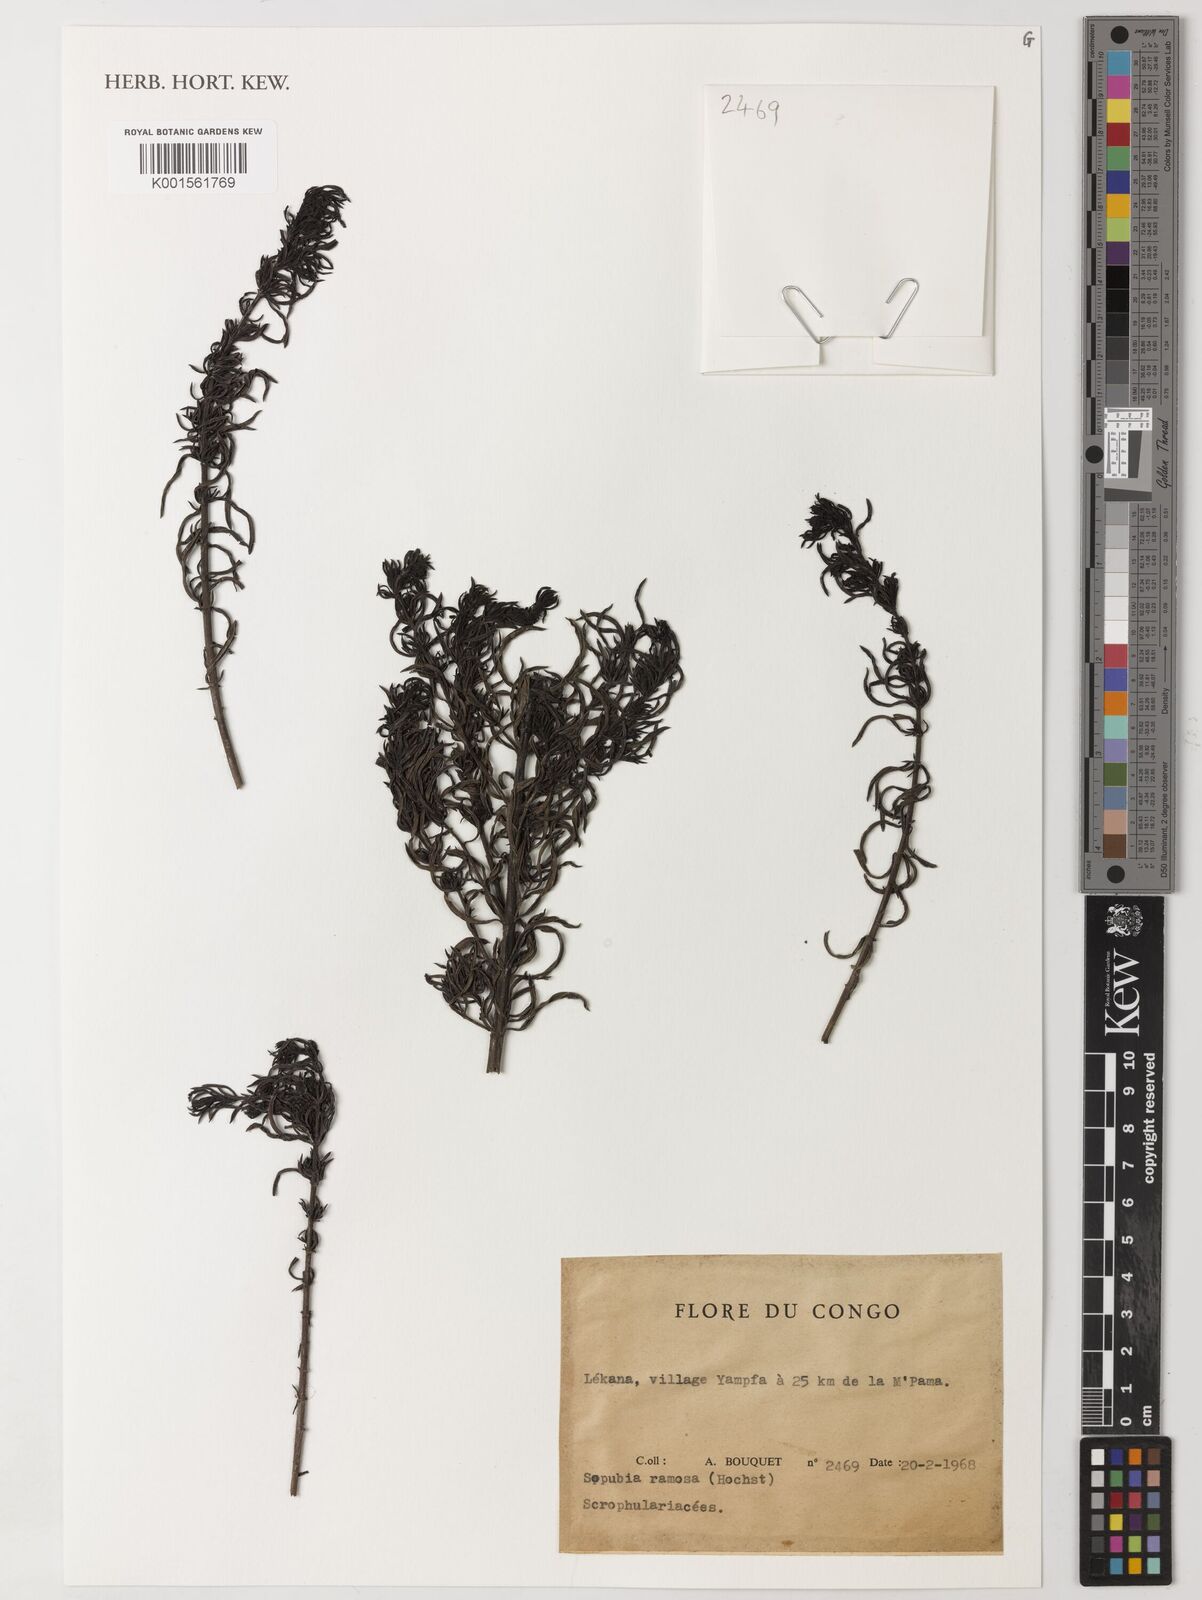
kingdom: Plantae
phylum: Tracheophyta
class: Magnoliopsida
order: Lamiales
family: Orobanchaceae
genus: Sopubia
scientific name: Sopubia ramosa
